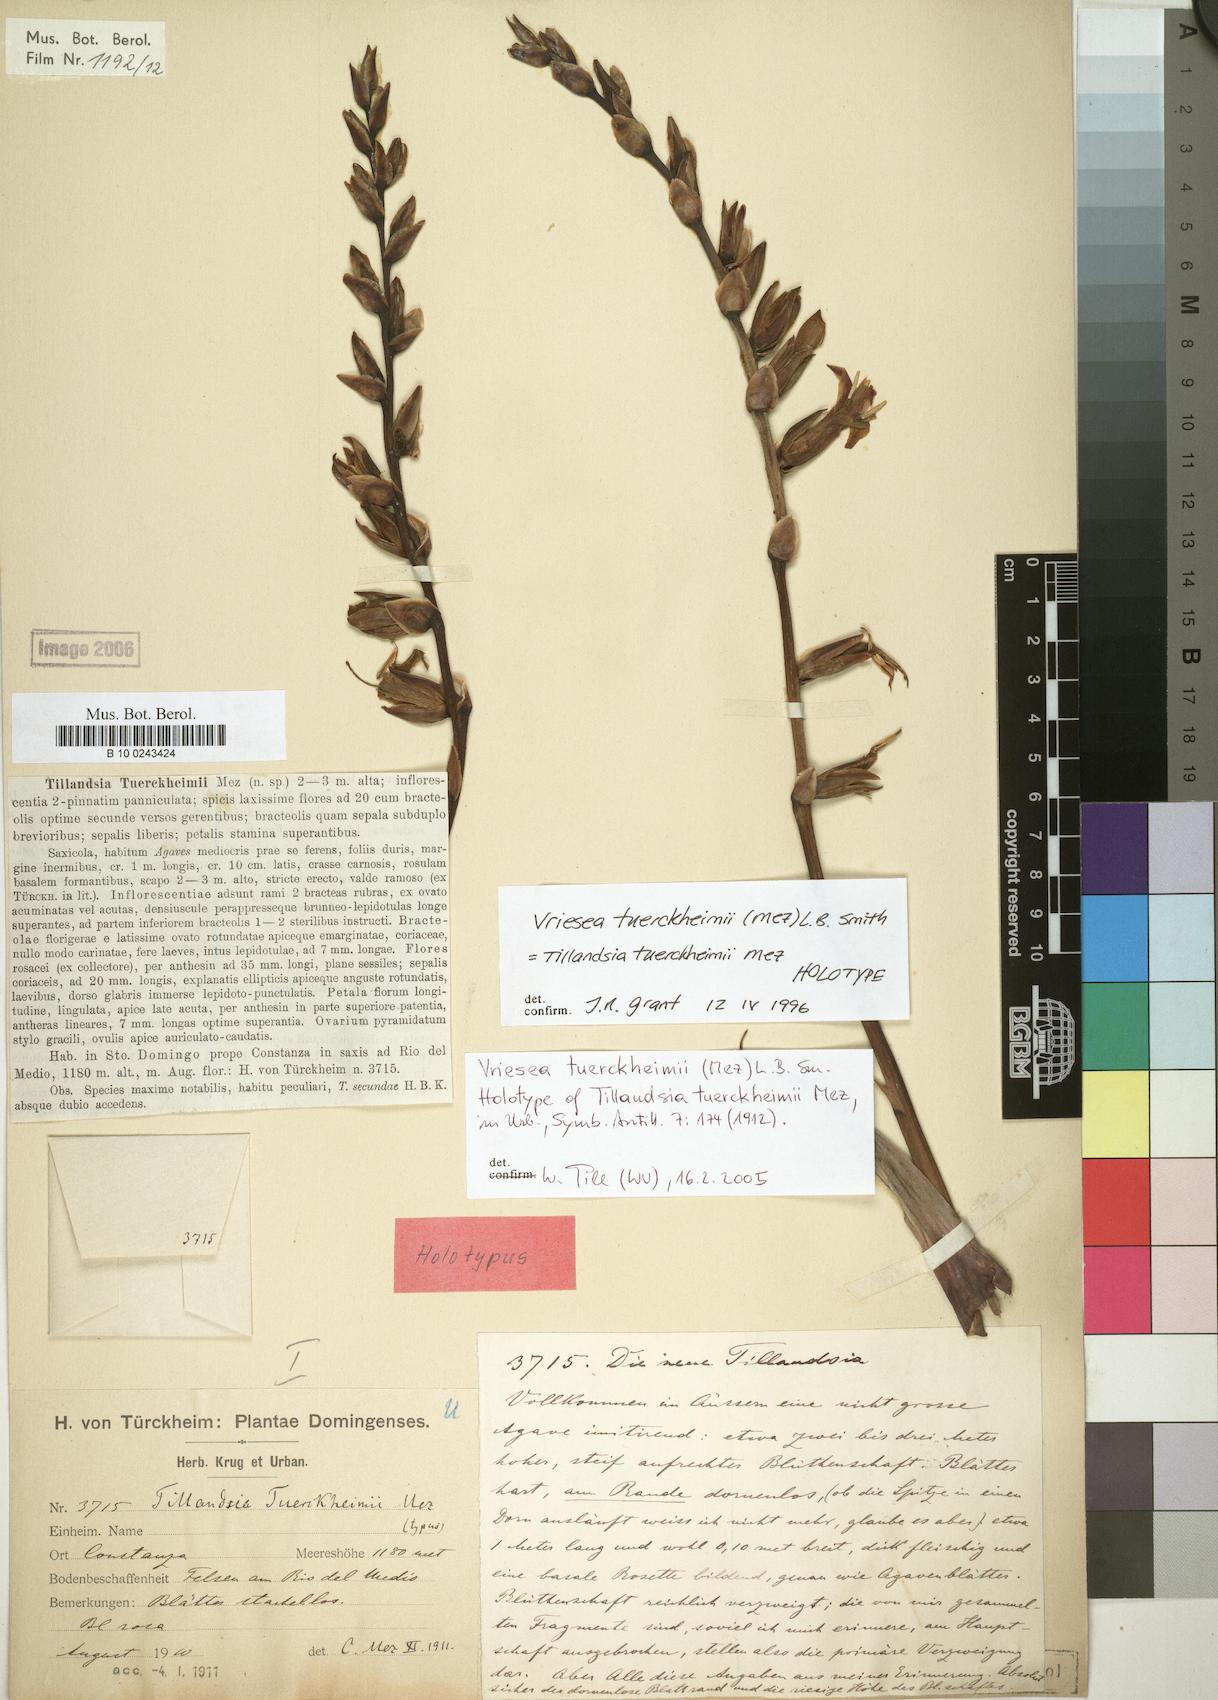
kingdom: Plantae
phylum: Tracheophyta
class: Liliopsida
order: Poales
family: Bromeliaceae
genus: Zizkaea
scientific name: Zizkaea tuerckheimii
